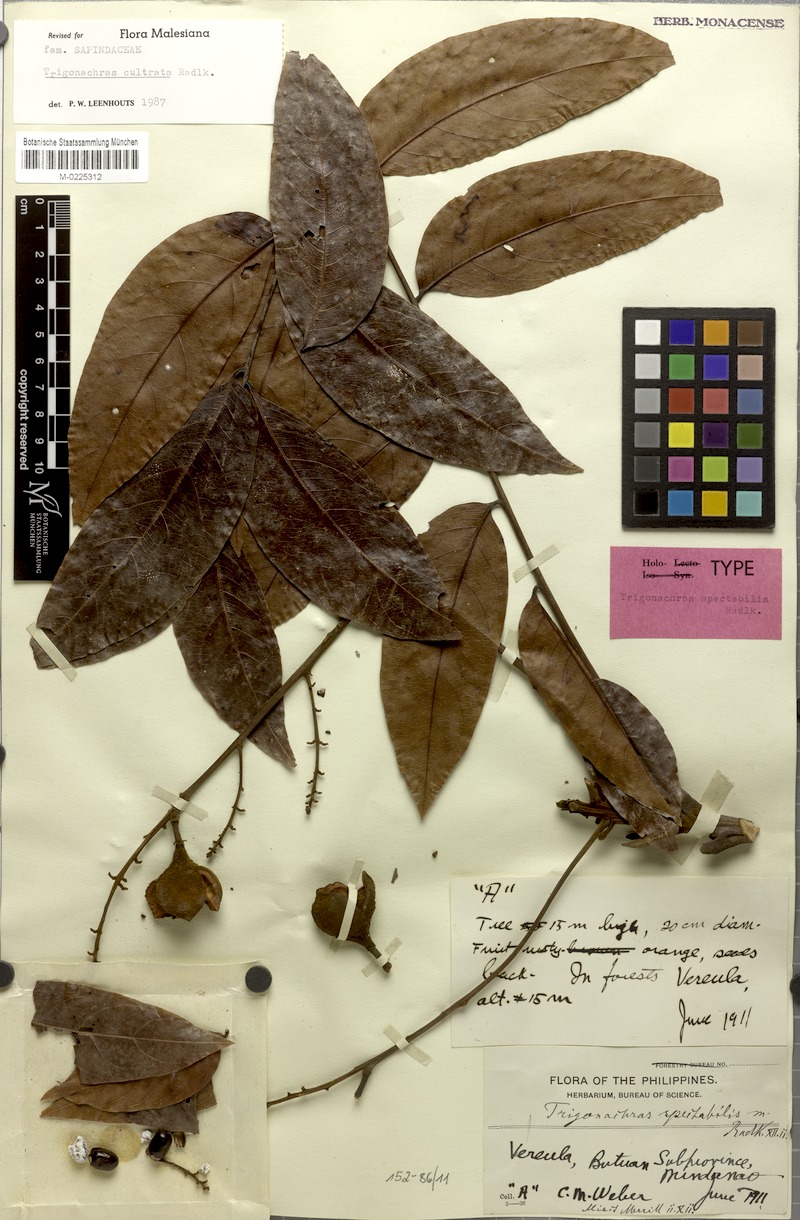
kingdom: Plantae
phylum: Tracheophyta
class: Magnoliopsida
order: Sapindales
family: Sapindaceae
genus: Trigonachras
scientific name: Trigonachras cultrata
